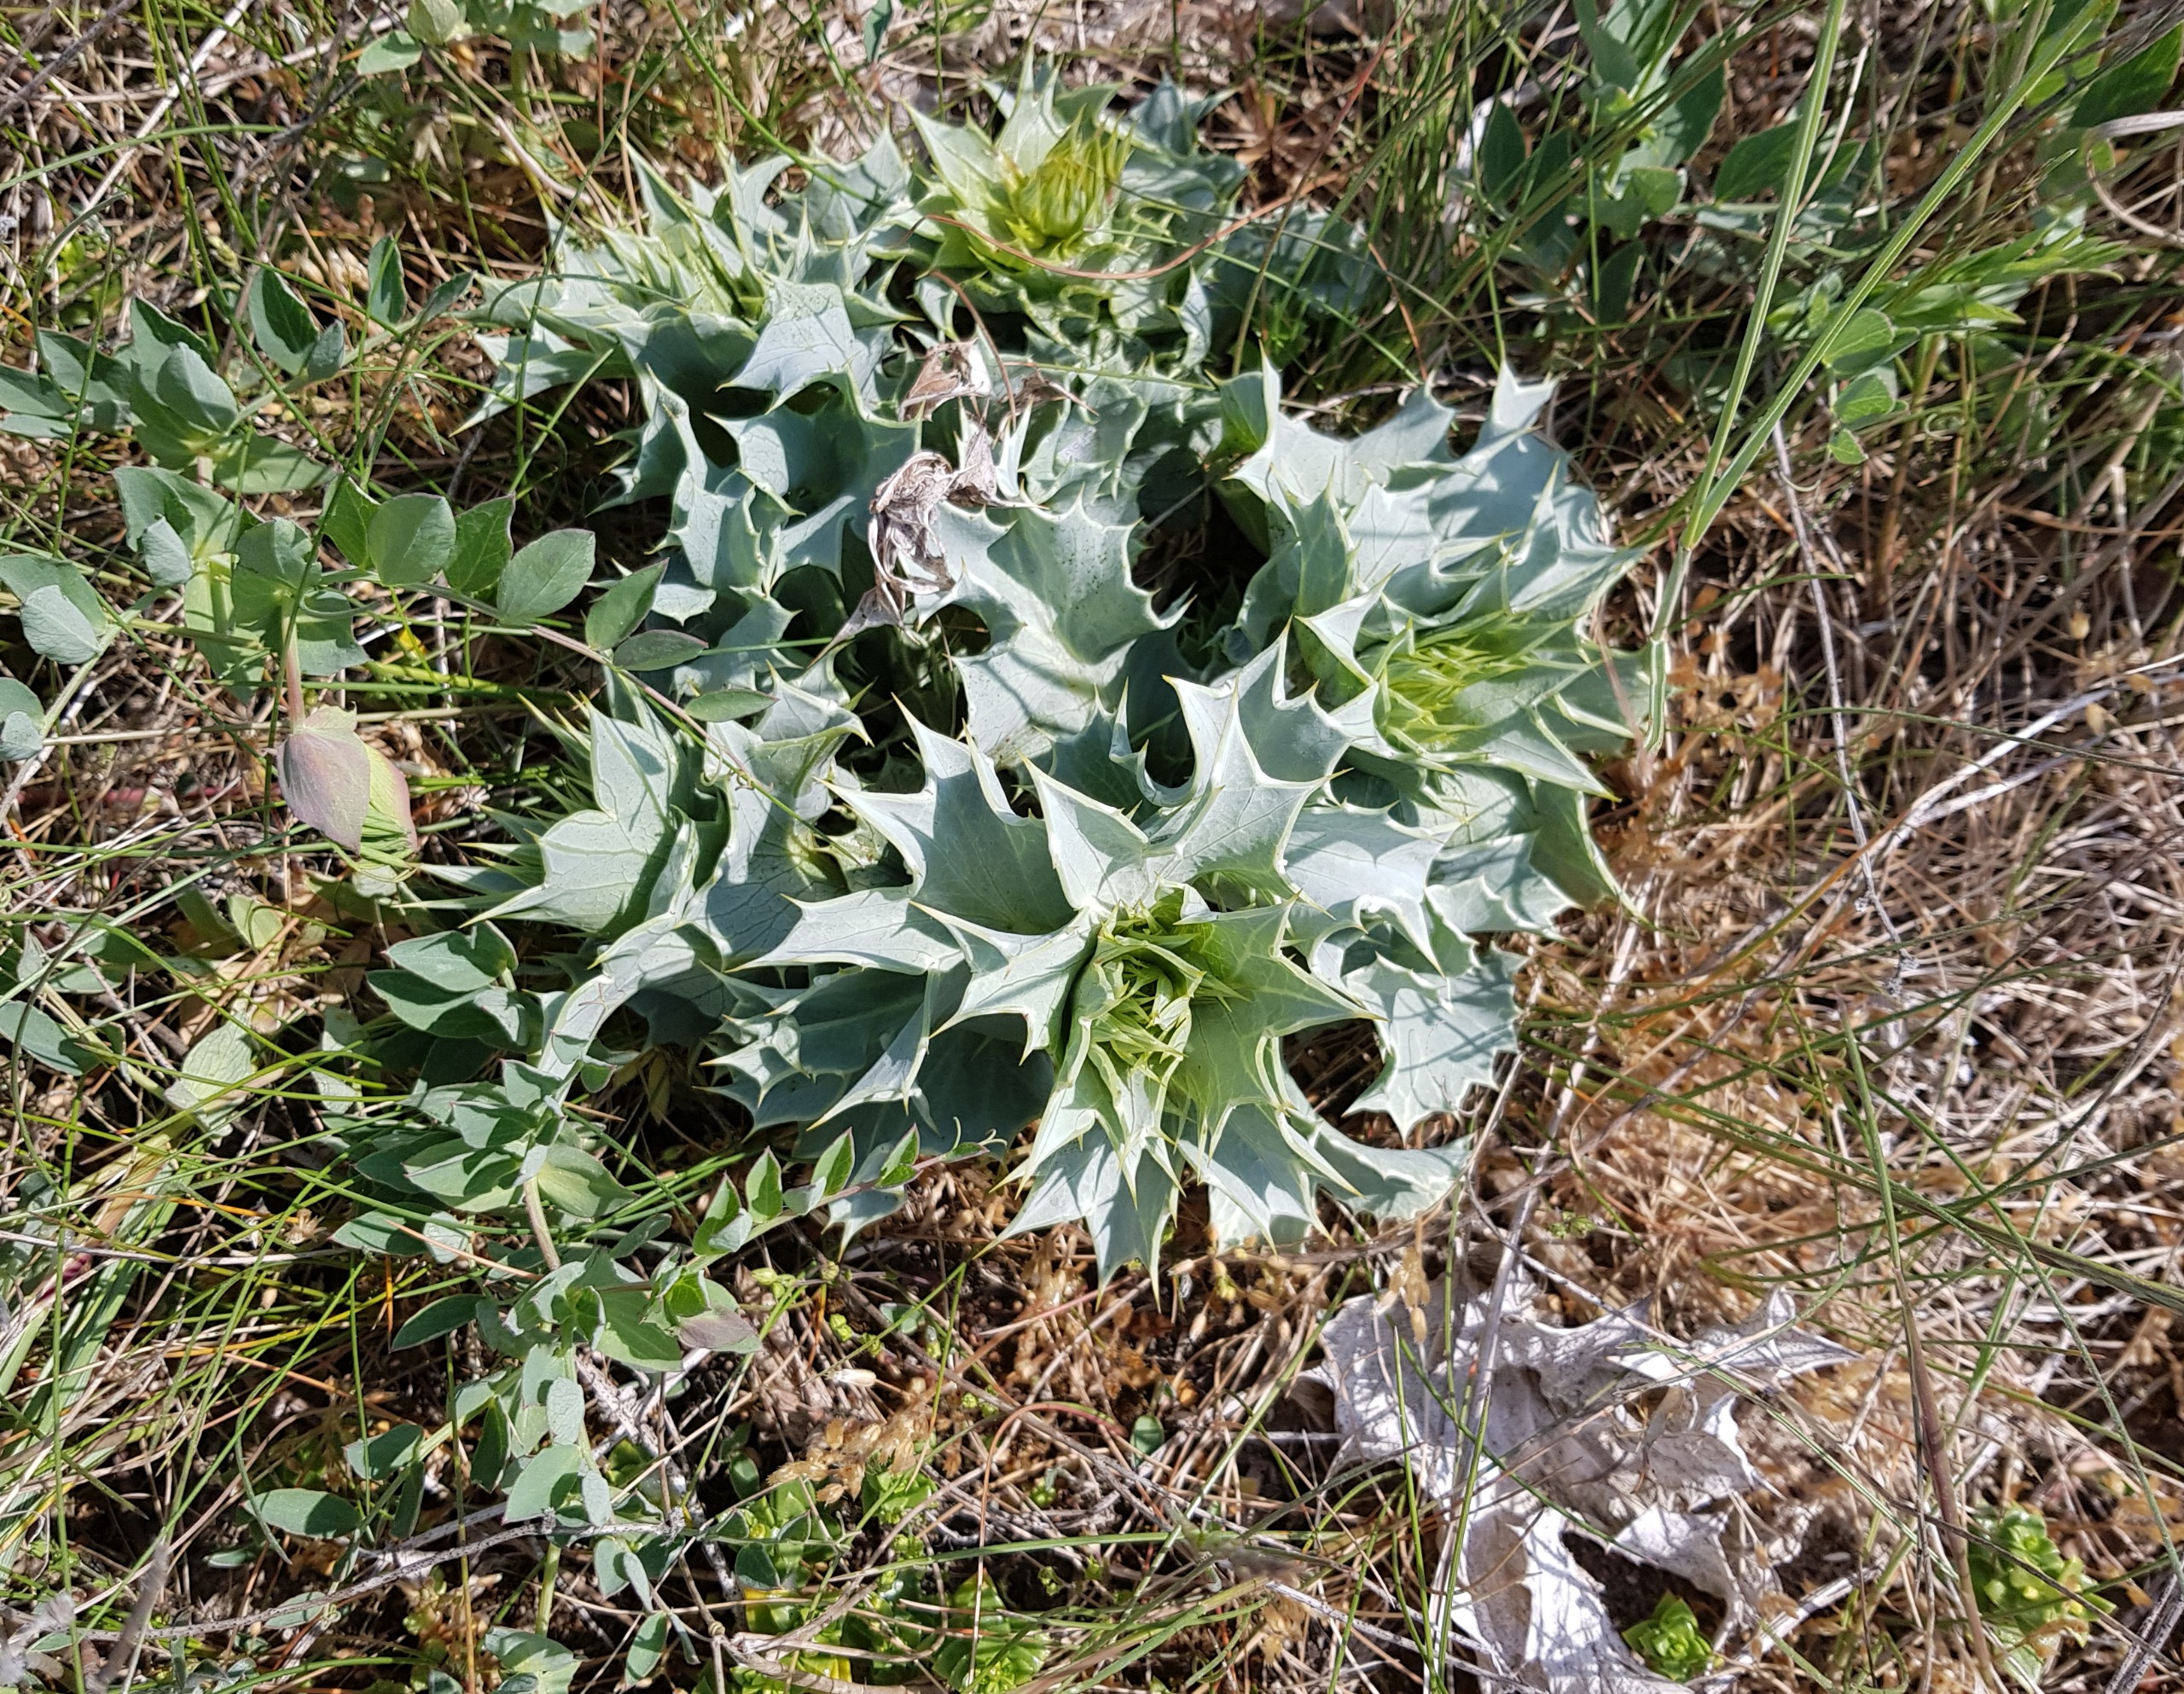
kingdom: Plantae
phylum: Tracheophyta
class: Magnoliopsida
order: Apiales
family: Apiaceae
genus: Eryngium
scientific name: Eryngium maritimum
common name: Strand-mandstro
